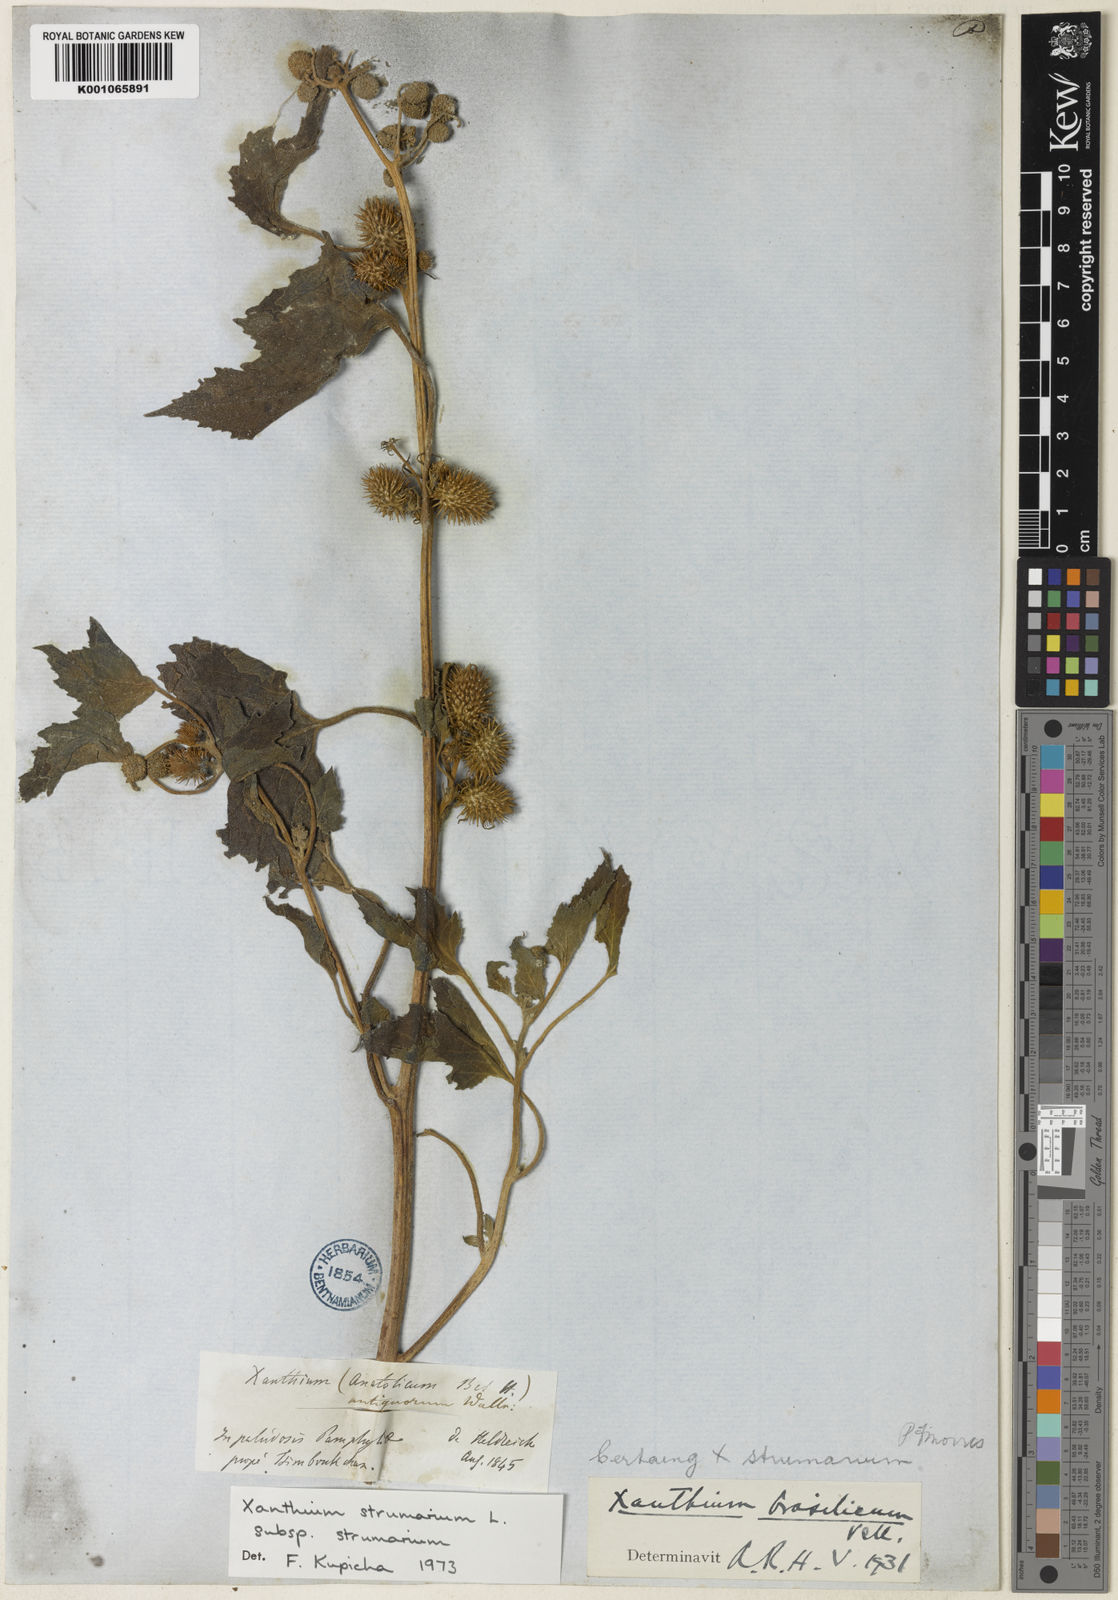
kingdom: Plantae
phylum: Tracheophyta
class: Magnoliopsida
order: Asterales
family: Asteraceae
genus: Xanthium
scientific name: Xanthium strumarium
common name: Rough cocklebur
